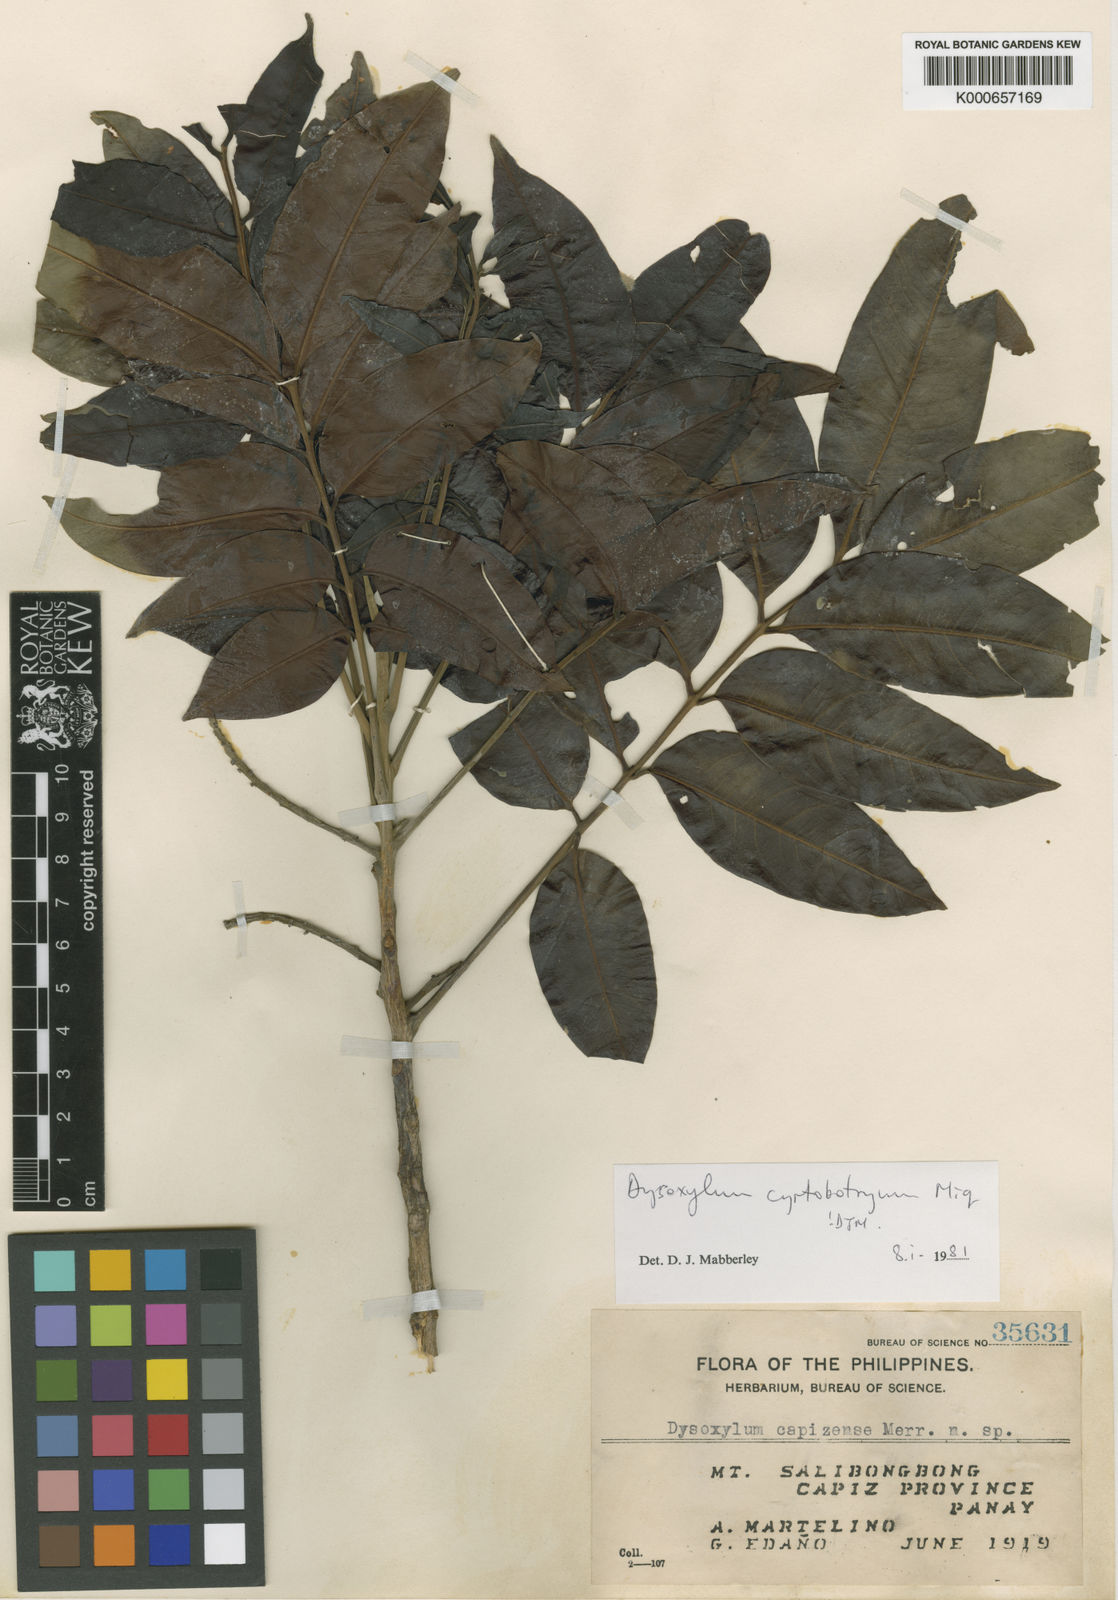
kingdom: Plantae
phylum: Tracheophyta
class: Magnoliopsida
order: Sapindales
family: Meliaceae
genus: Dysoxylum
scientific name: Dysoxylum cyrtobotryum
